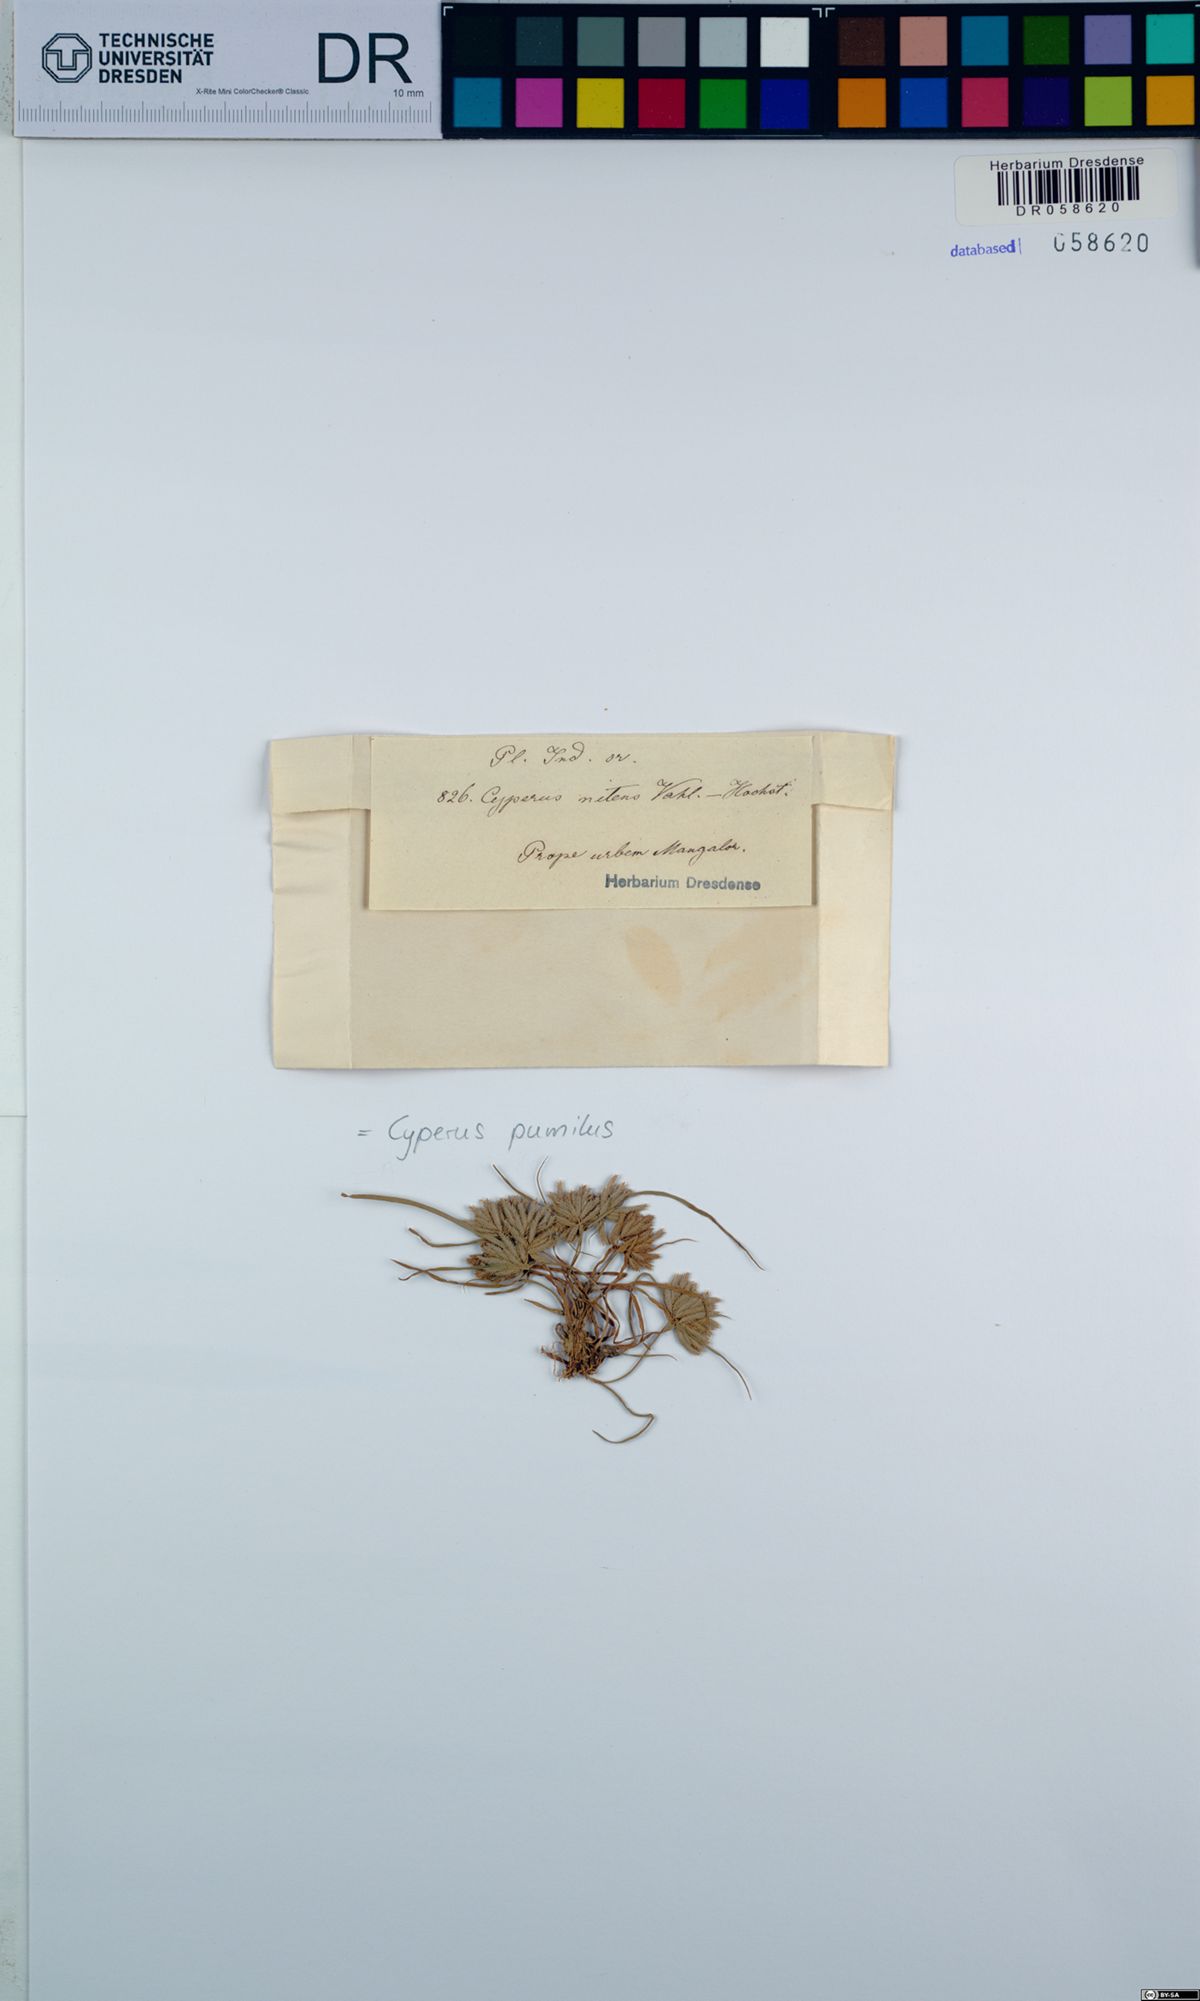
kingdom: Plantae
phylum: Tracheophyta
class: Liliopsida
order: Poales
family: Cyperaceae
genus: Cyperus
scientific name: Cyperus pumilus
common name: Low flatsedge
